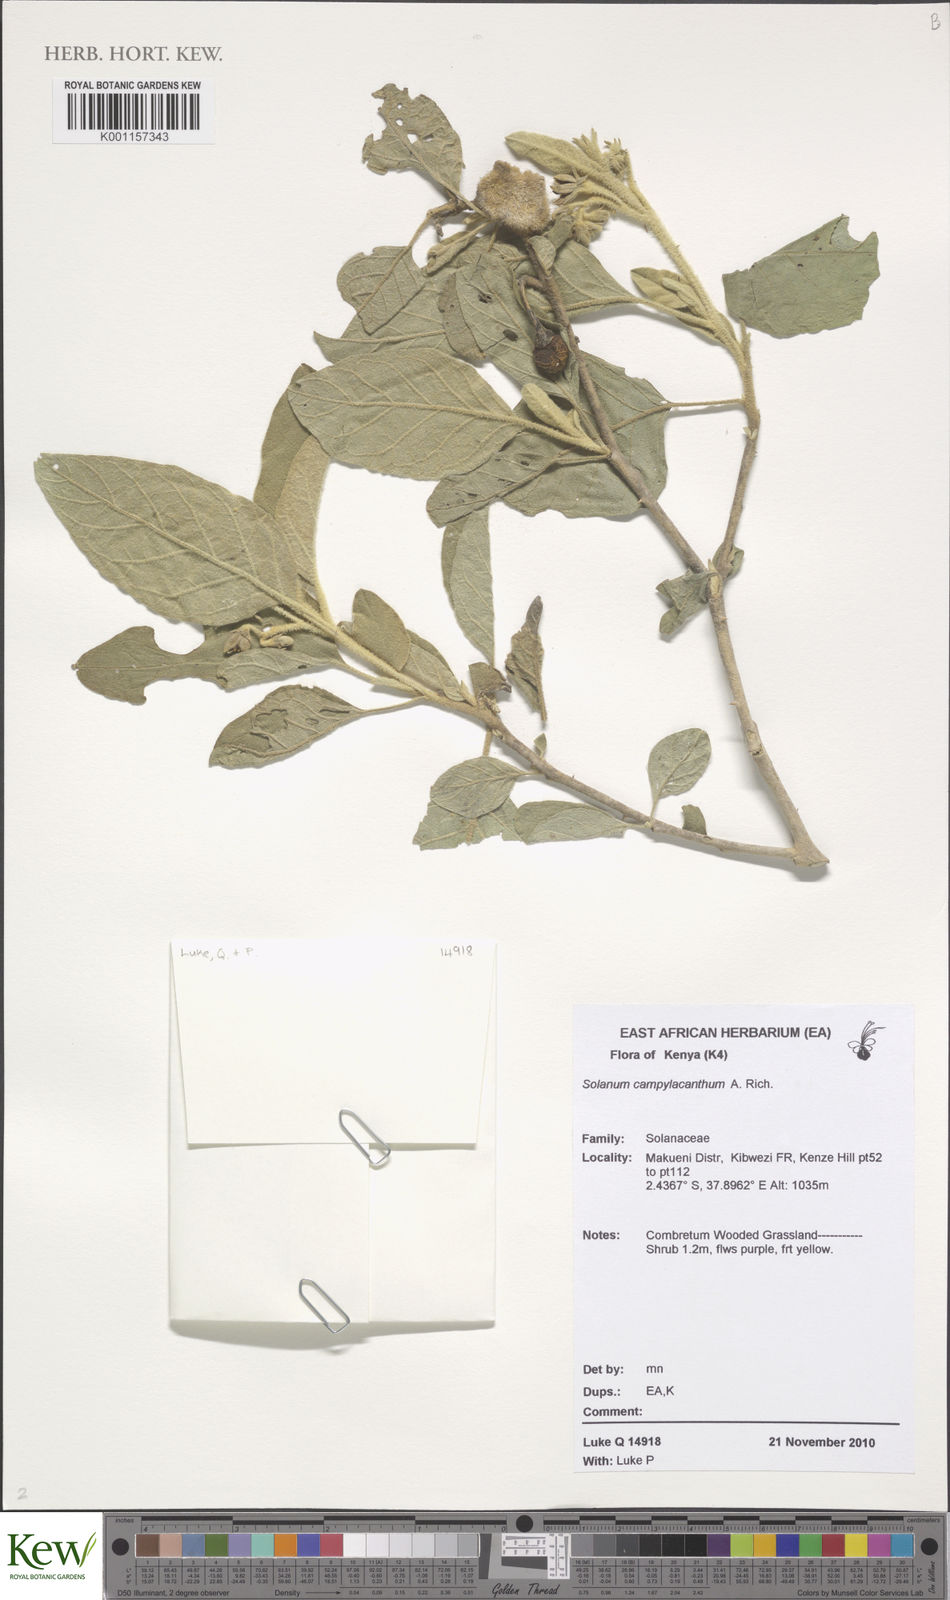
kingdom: Plantae
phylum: Tracheophyta
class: Magnoliopsida
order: Solanales
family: Solanaceae
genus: Solanum
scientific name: Solanum campylacanthum
